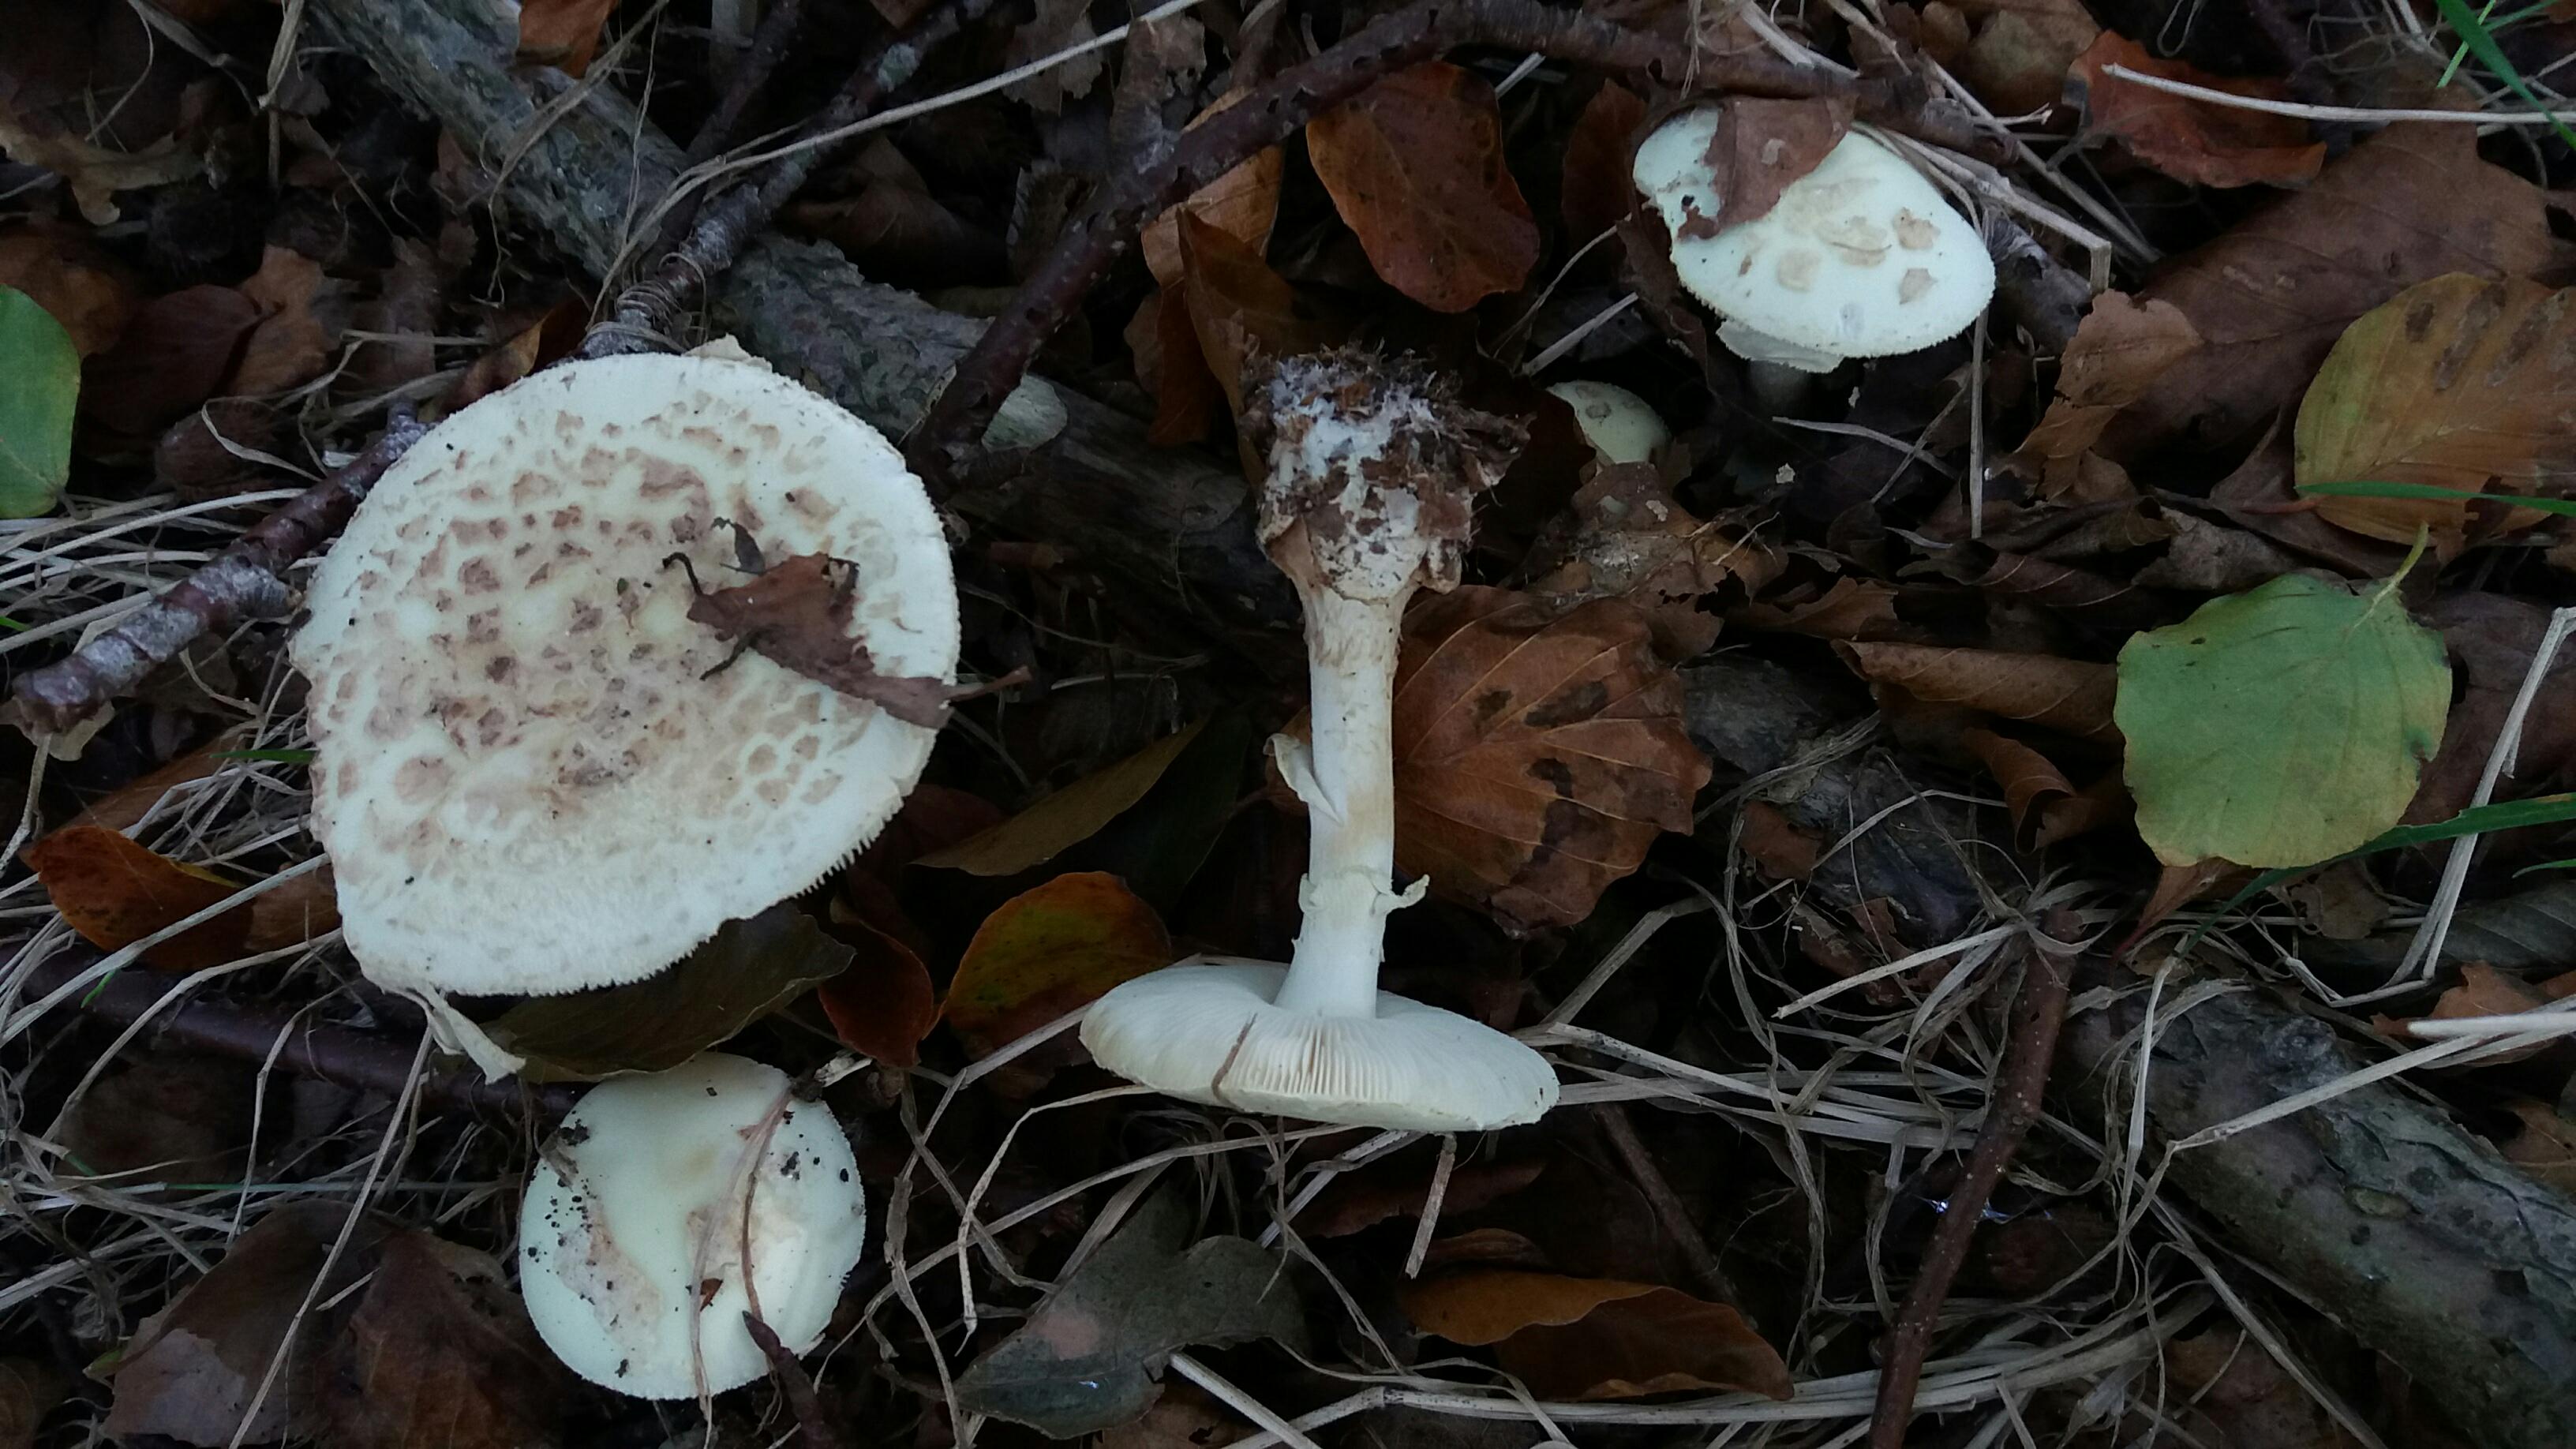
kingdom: Fungi
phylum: Basidiomycota
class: Agaricomycetes
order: Agaricales
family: Amanitaceae
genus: Amanita
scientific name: Amanita citrina
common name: kugleknoldet fluesvamp
